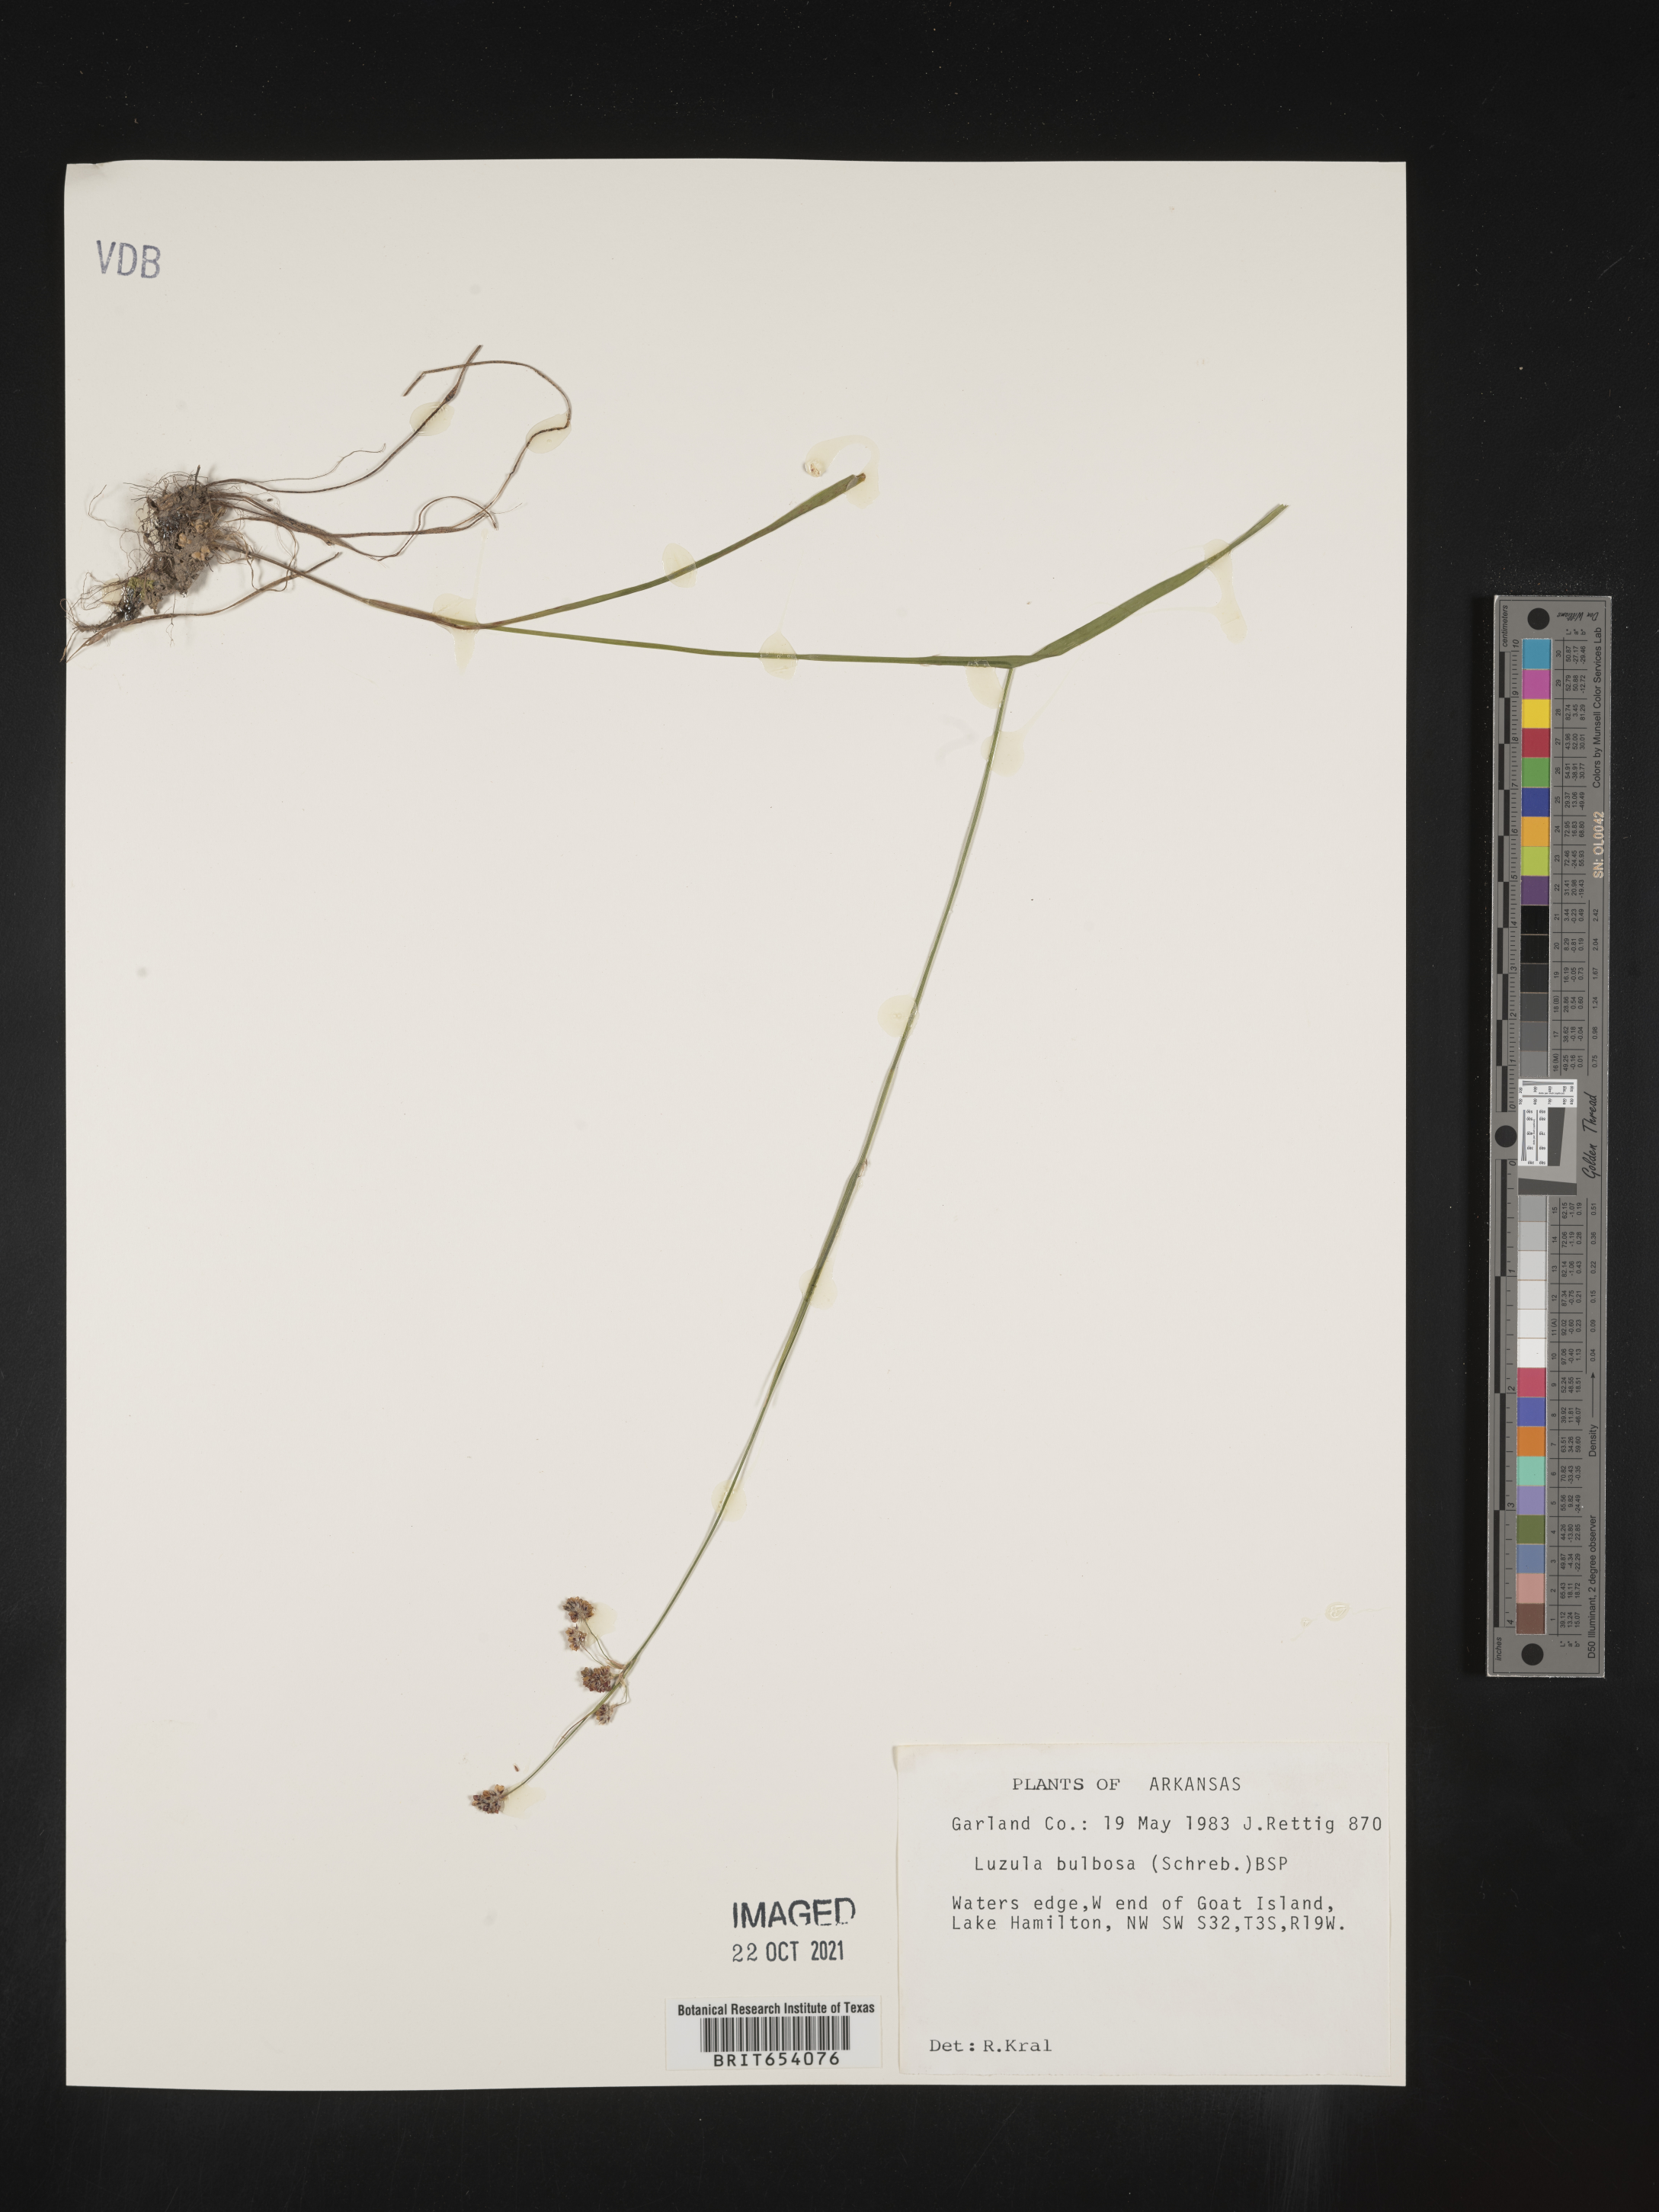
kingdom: Plantae
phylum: Tracheophyta
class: Liliopsida
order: Poales
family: Juncaceae
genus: Luzula
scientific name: Luzula bulbosa
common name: Bulbous woodrush
